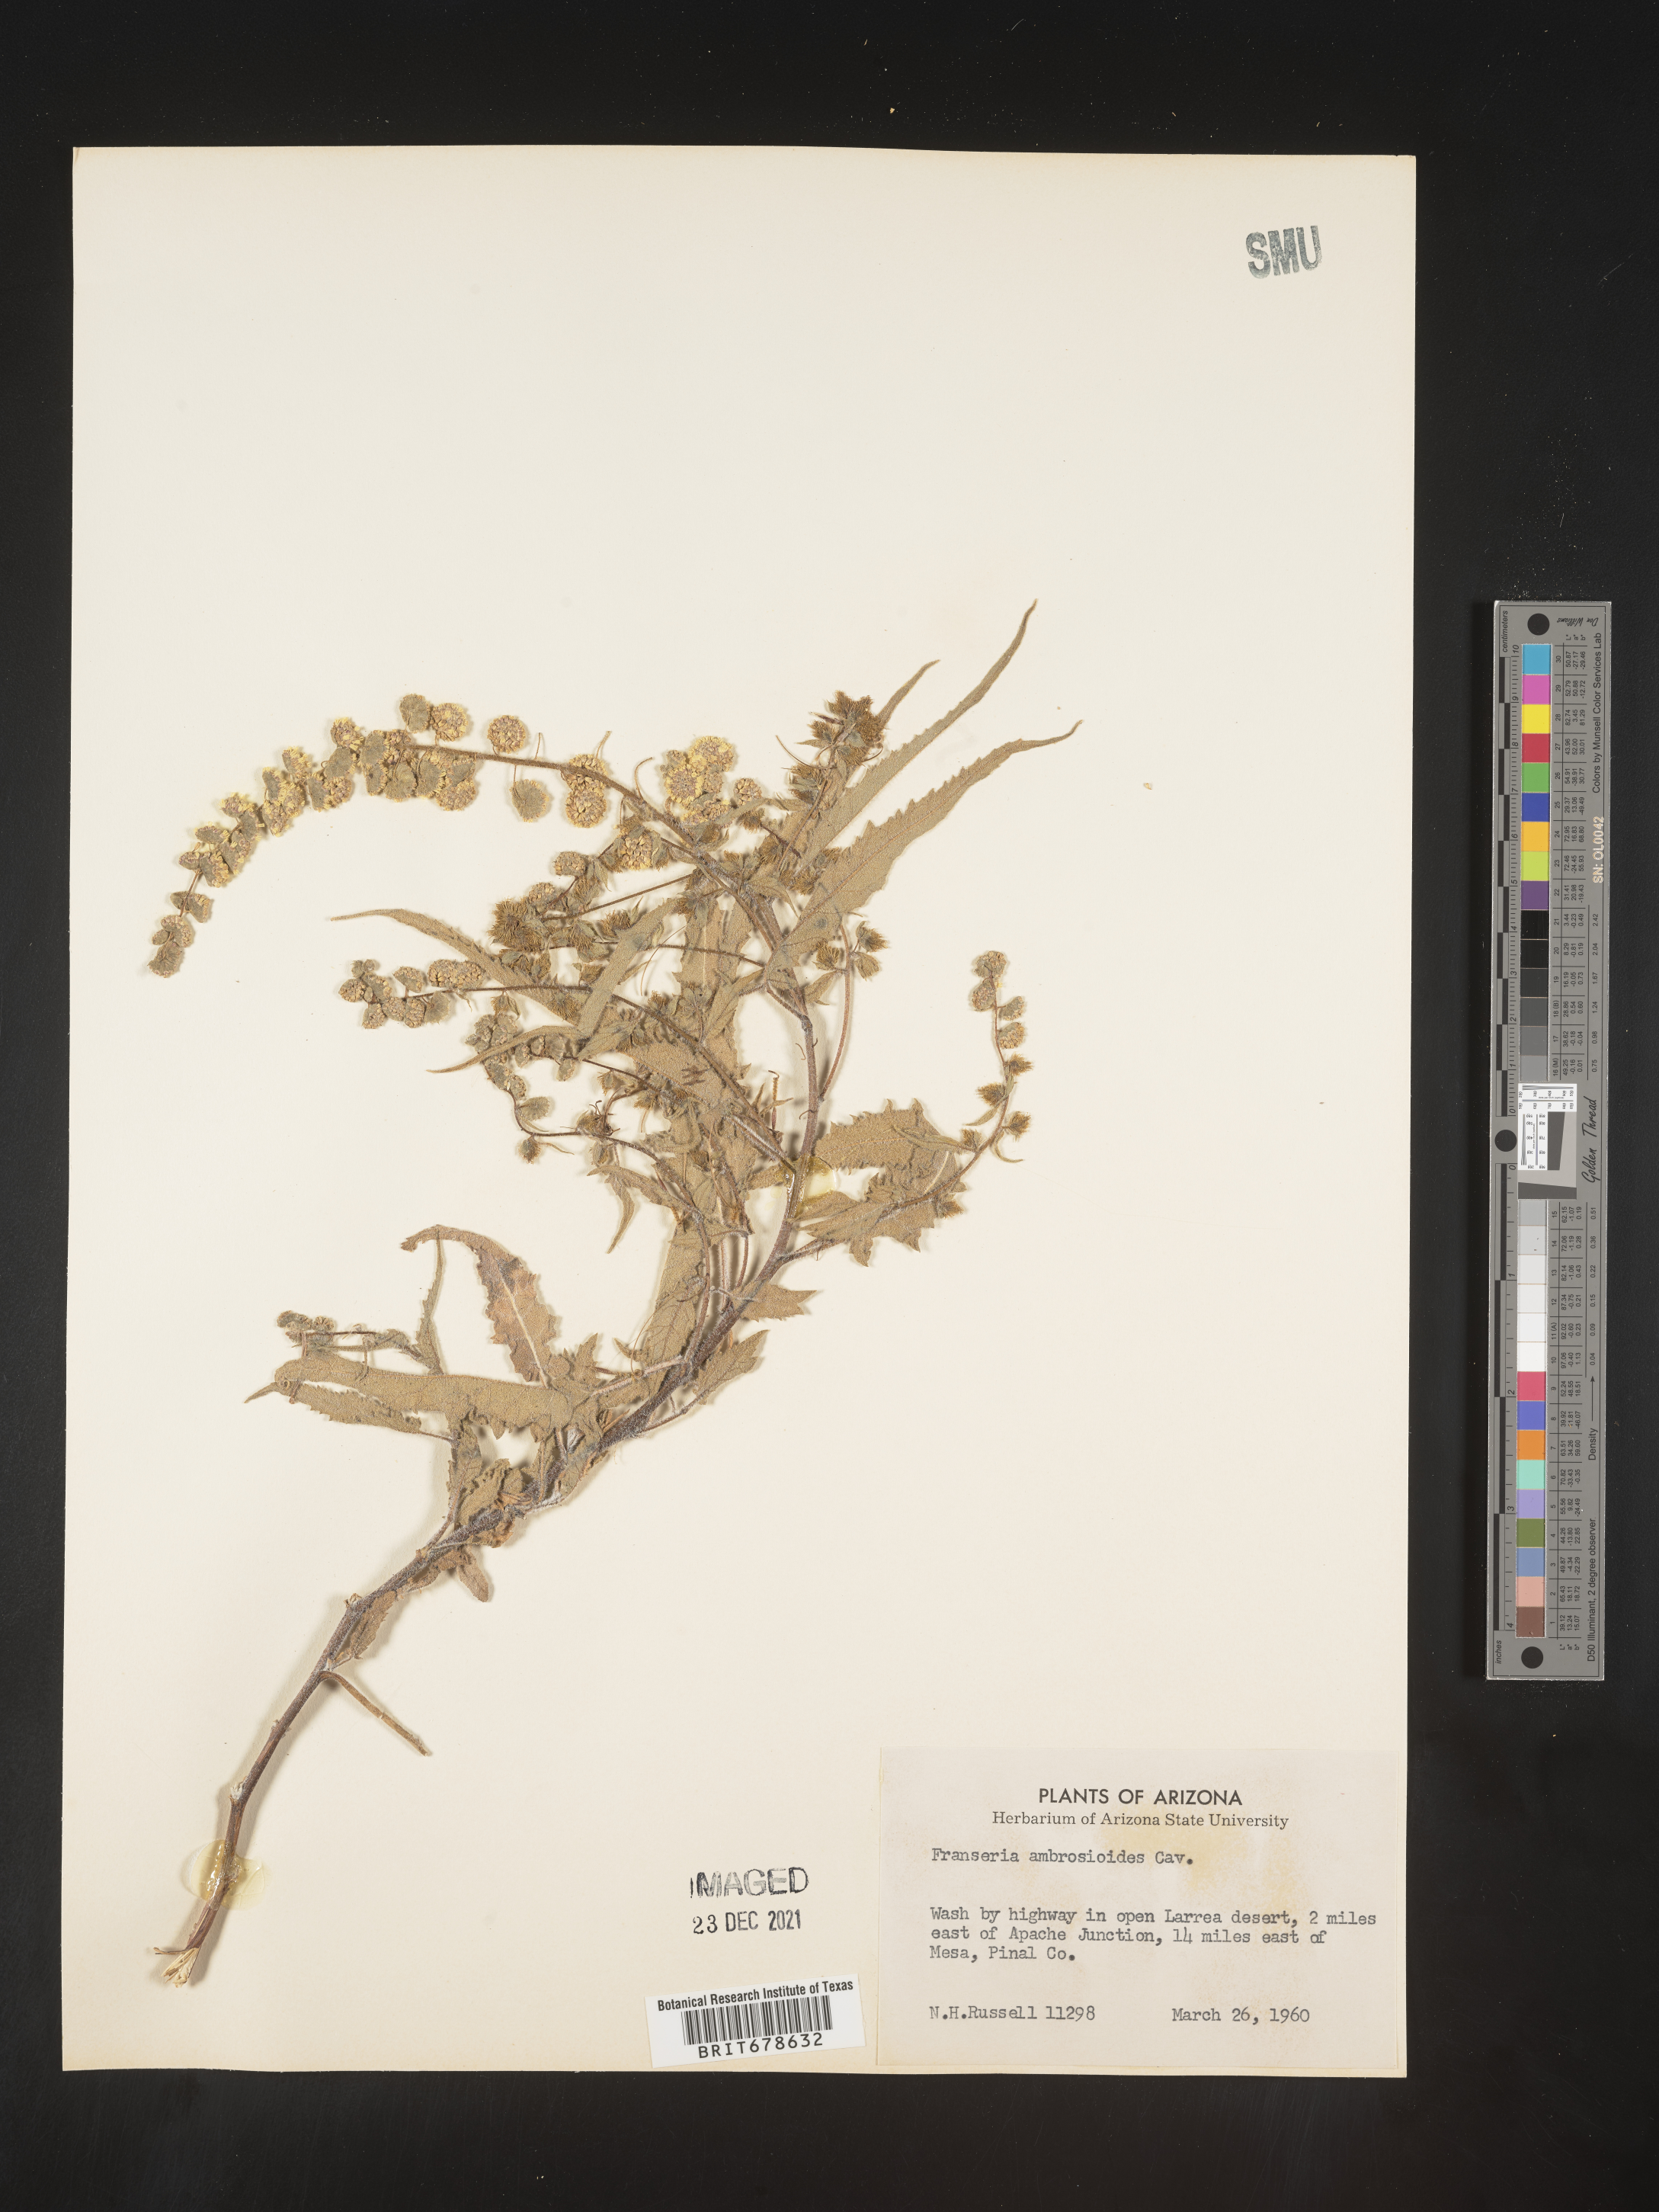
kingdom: Plantae
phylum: Tracheophyta
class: Magnoliopsida
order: Asterales
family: Asteraceae
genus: Ambrosia
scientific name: Ambrosia ambrosioides
